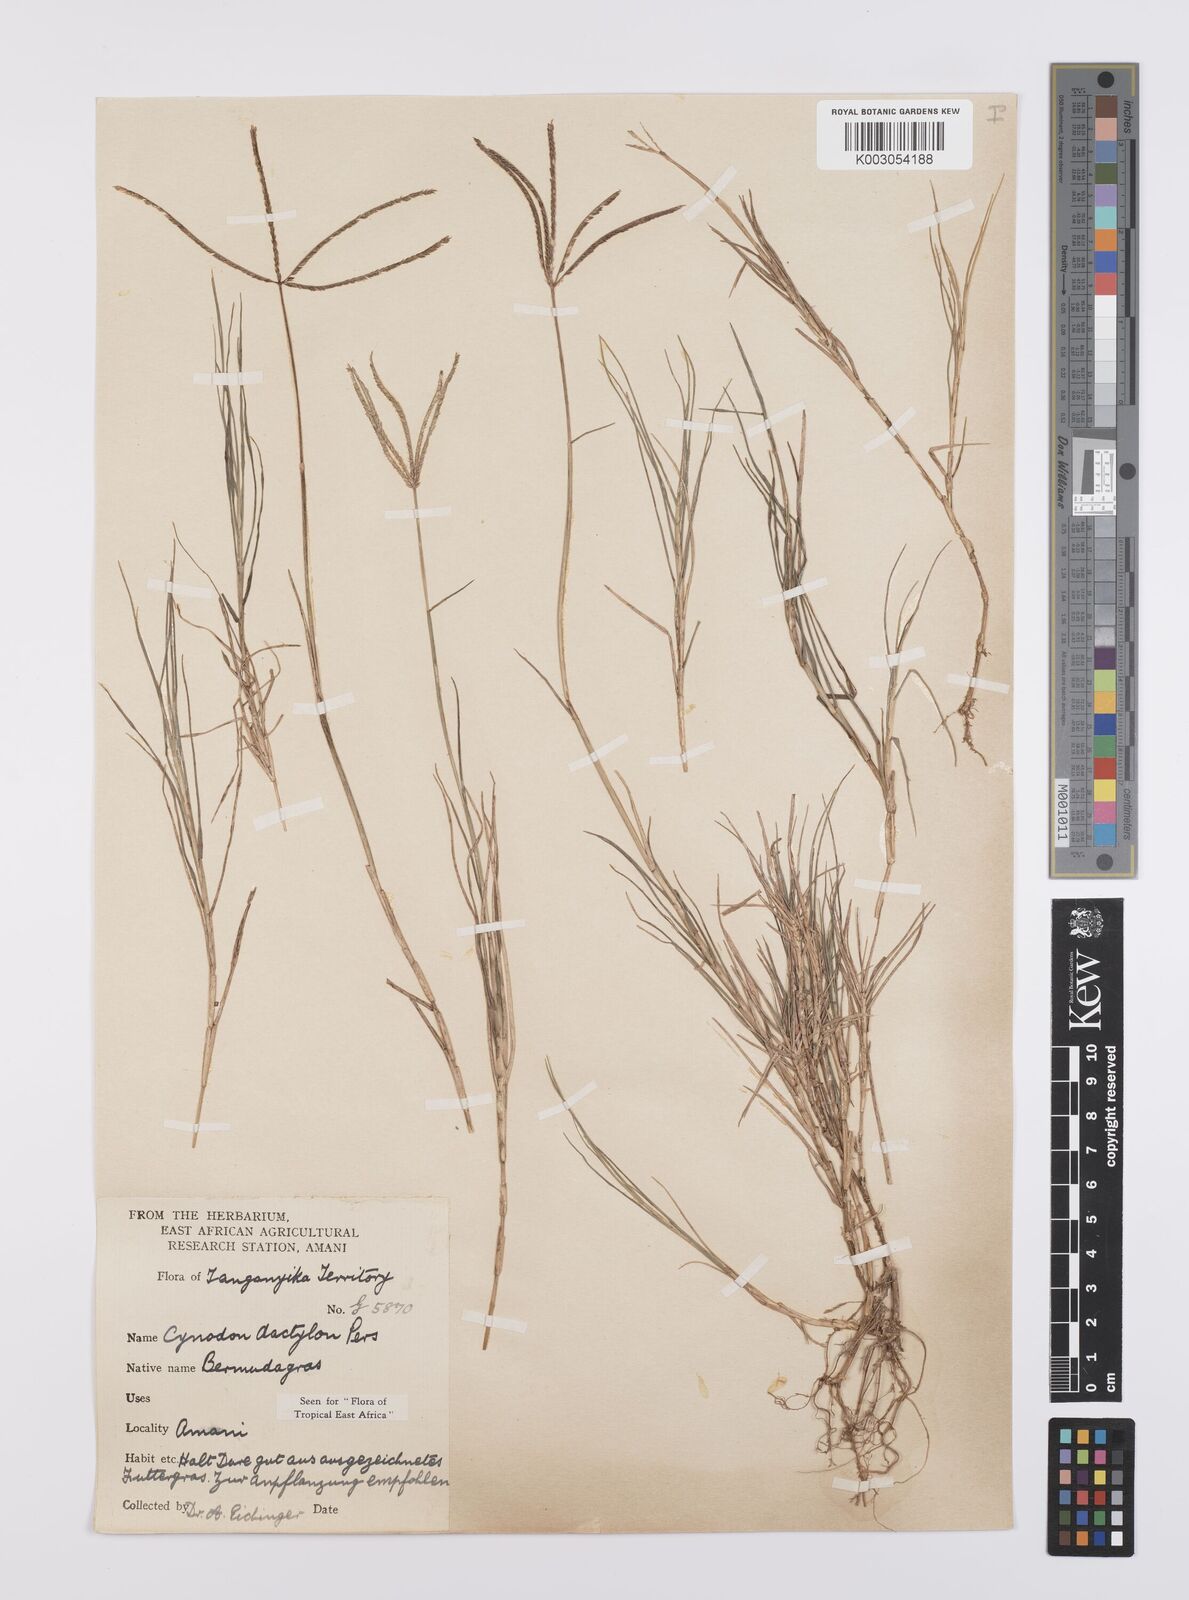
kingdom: Plantae
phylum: Tracheophyta
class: Liliopsida
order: Poales
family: Poaceae
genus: Cynodon
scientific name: Cynodon dactylon
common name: Bermuda grass
